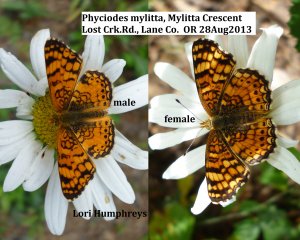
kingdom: Animalia
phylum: Arthropoda
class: Insecta
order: Lepidoptera
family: Nymphalidae
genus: Eresia
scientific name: Eresia aveyrona
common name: Mylitta Crescent
